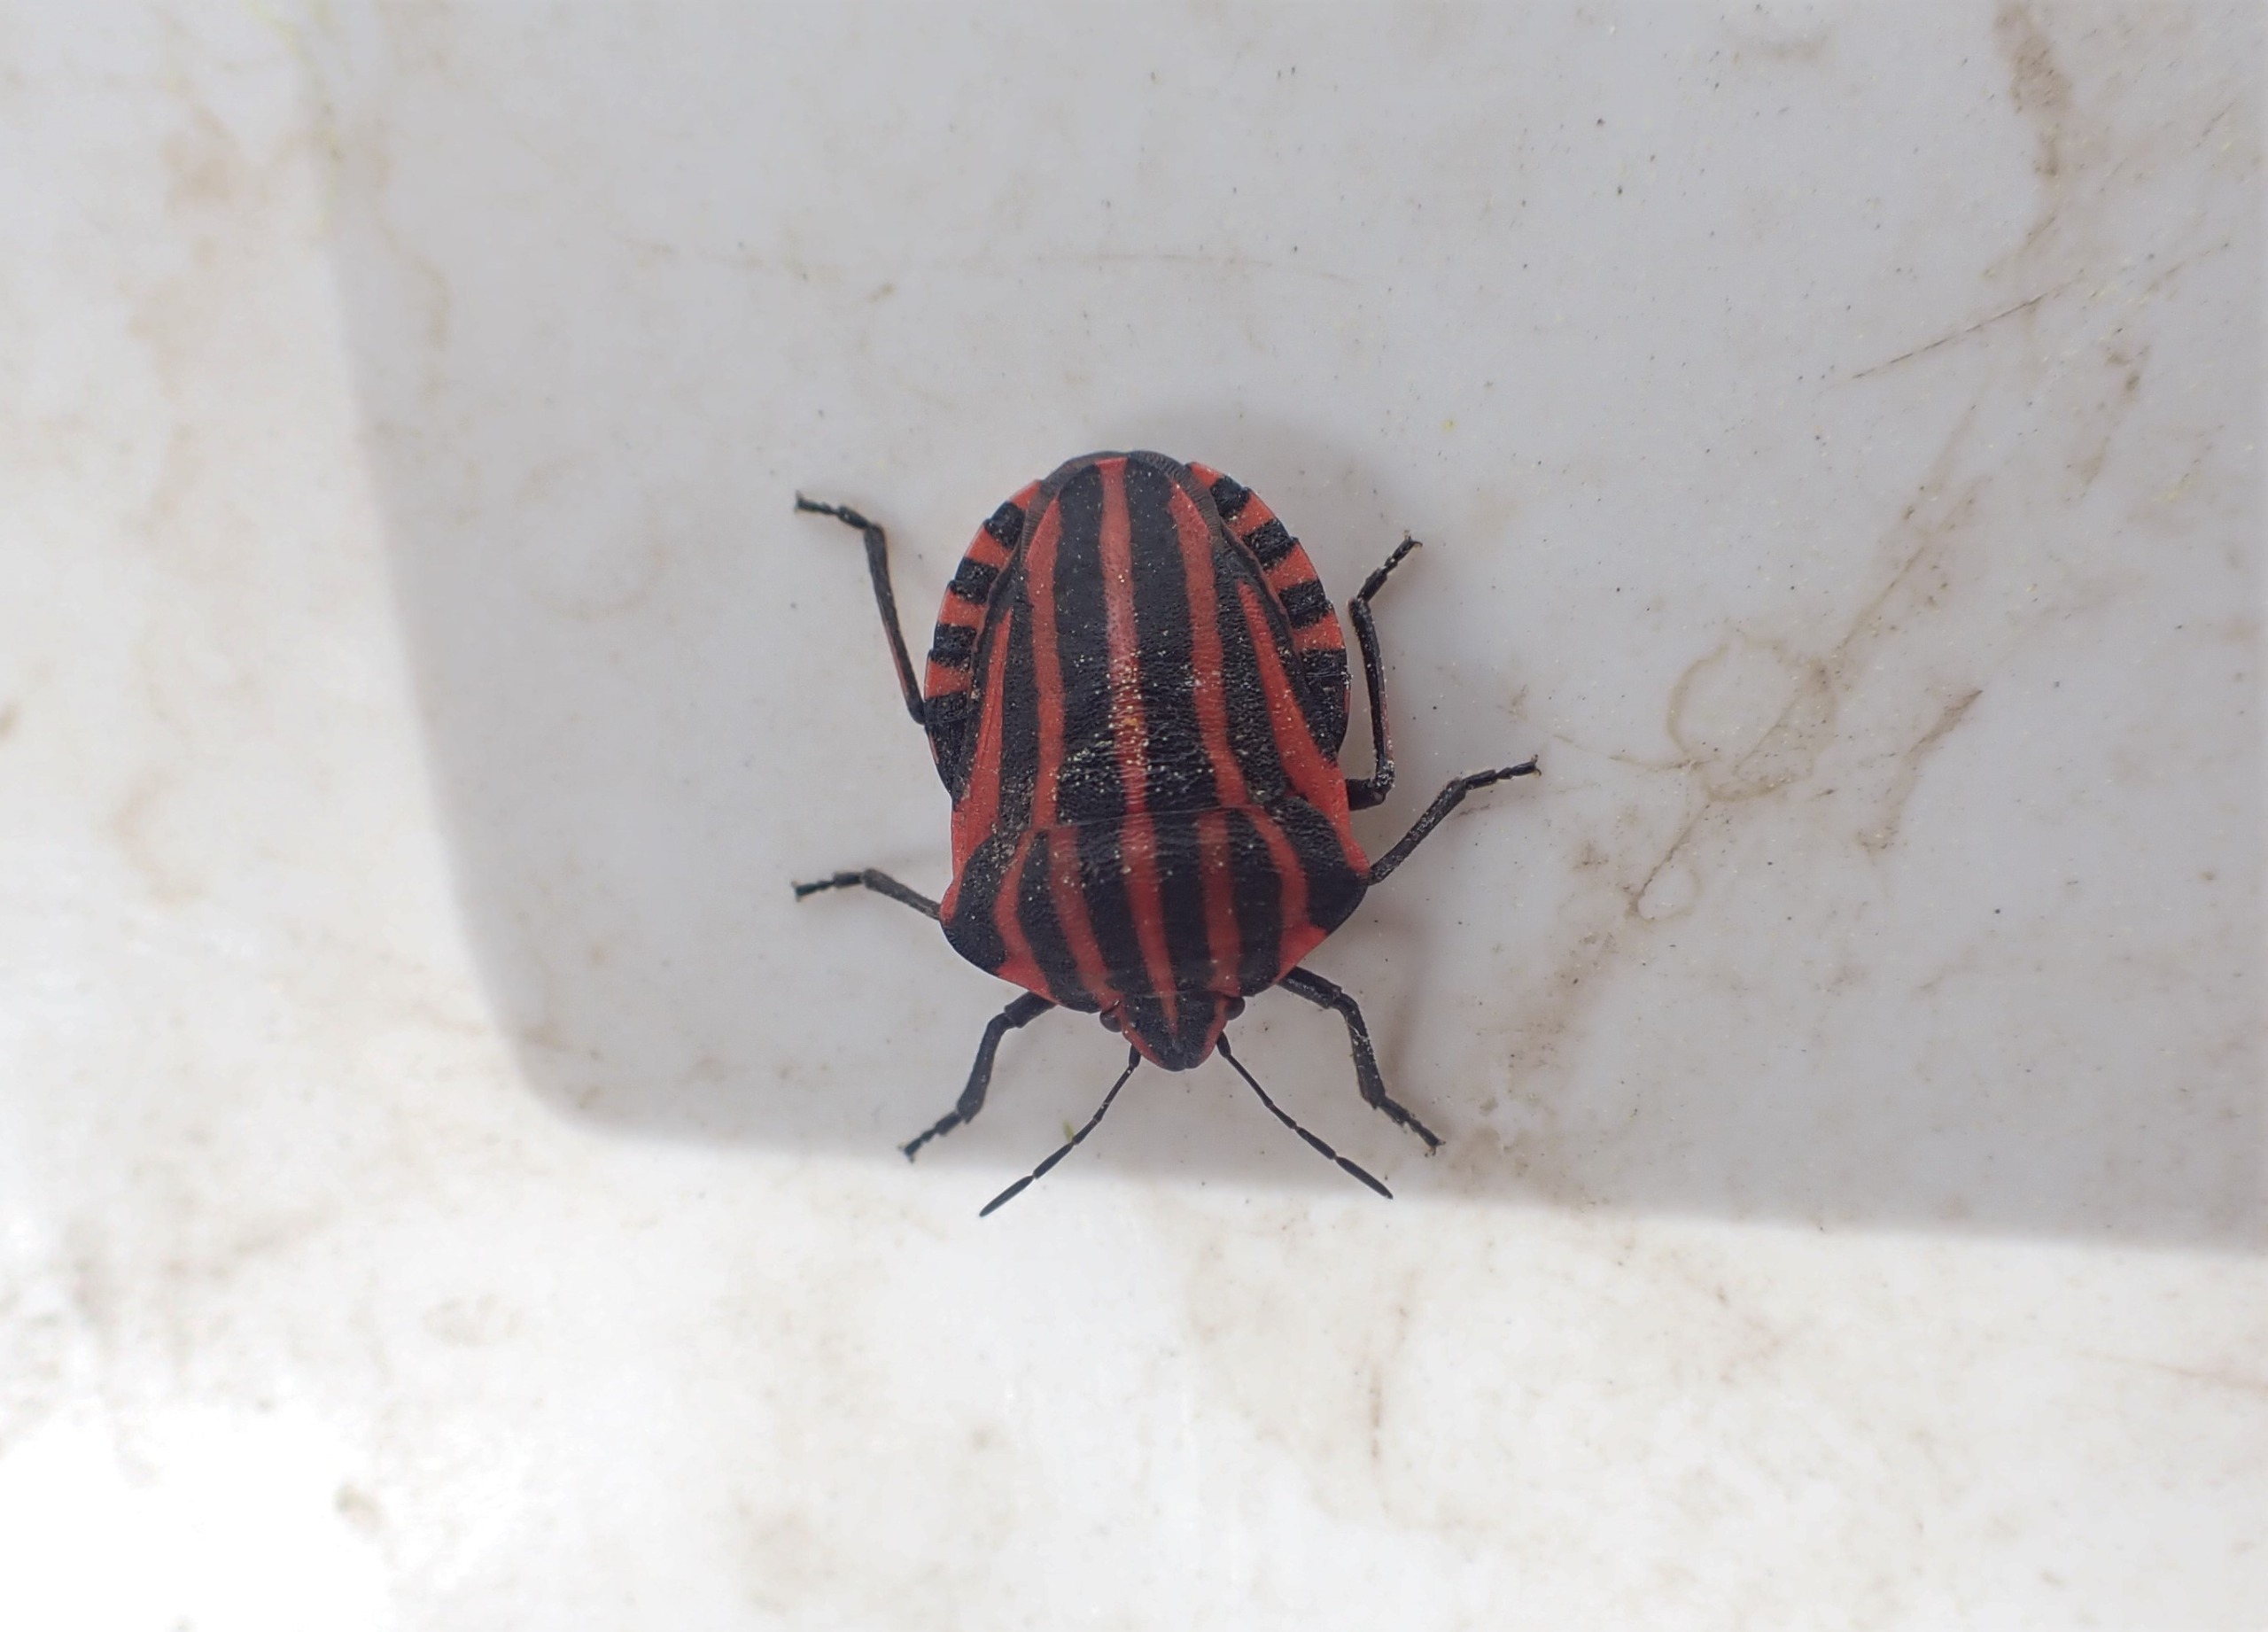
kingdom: Animalia
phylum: Arthropoda
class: Insecta
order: Hemiptera
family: Pentatomidae
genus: Graphosoma
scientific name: Graphosoma italicum
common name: Stribetæge
